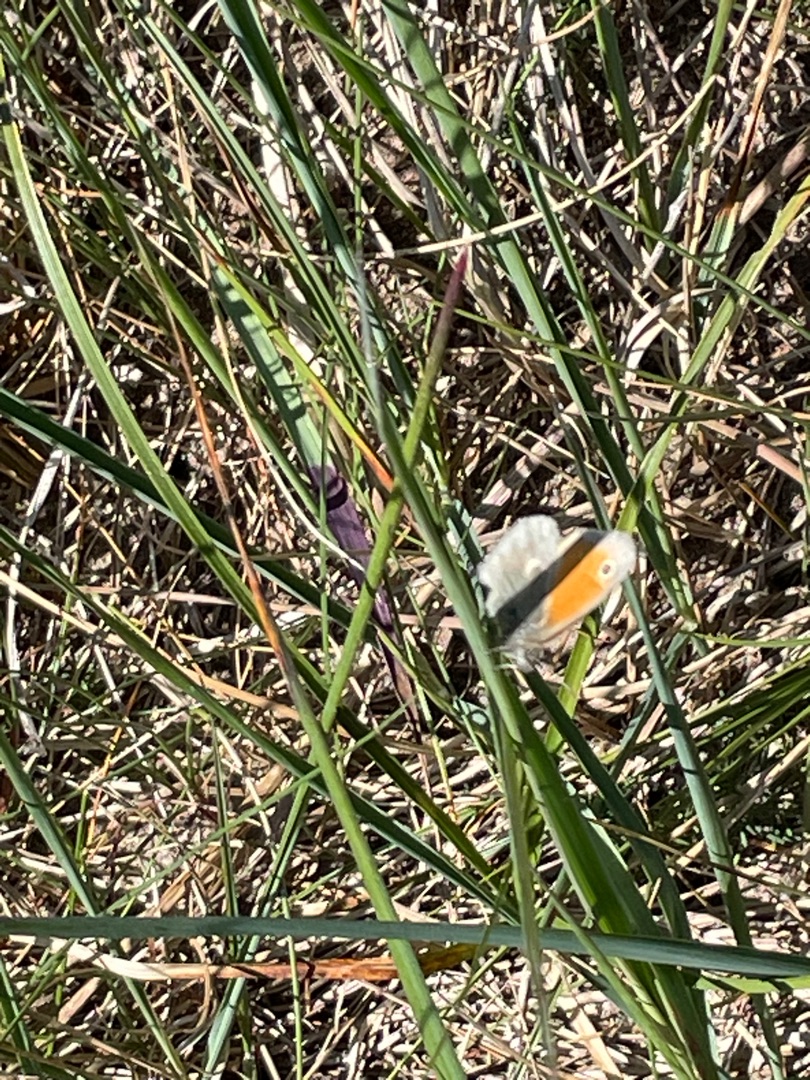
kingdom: Animalia
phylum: Arthropoda
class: Insecta
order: Lepidoptera
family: Nymphalidae
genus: Coenonympha
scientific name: Coenonympha pamphilus
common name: Okkergul randøje
